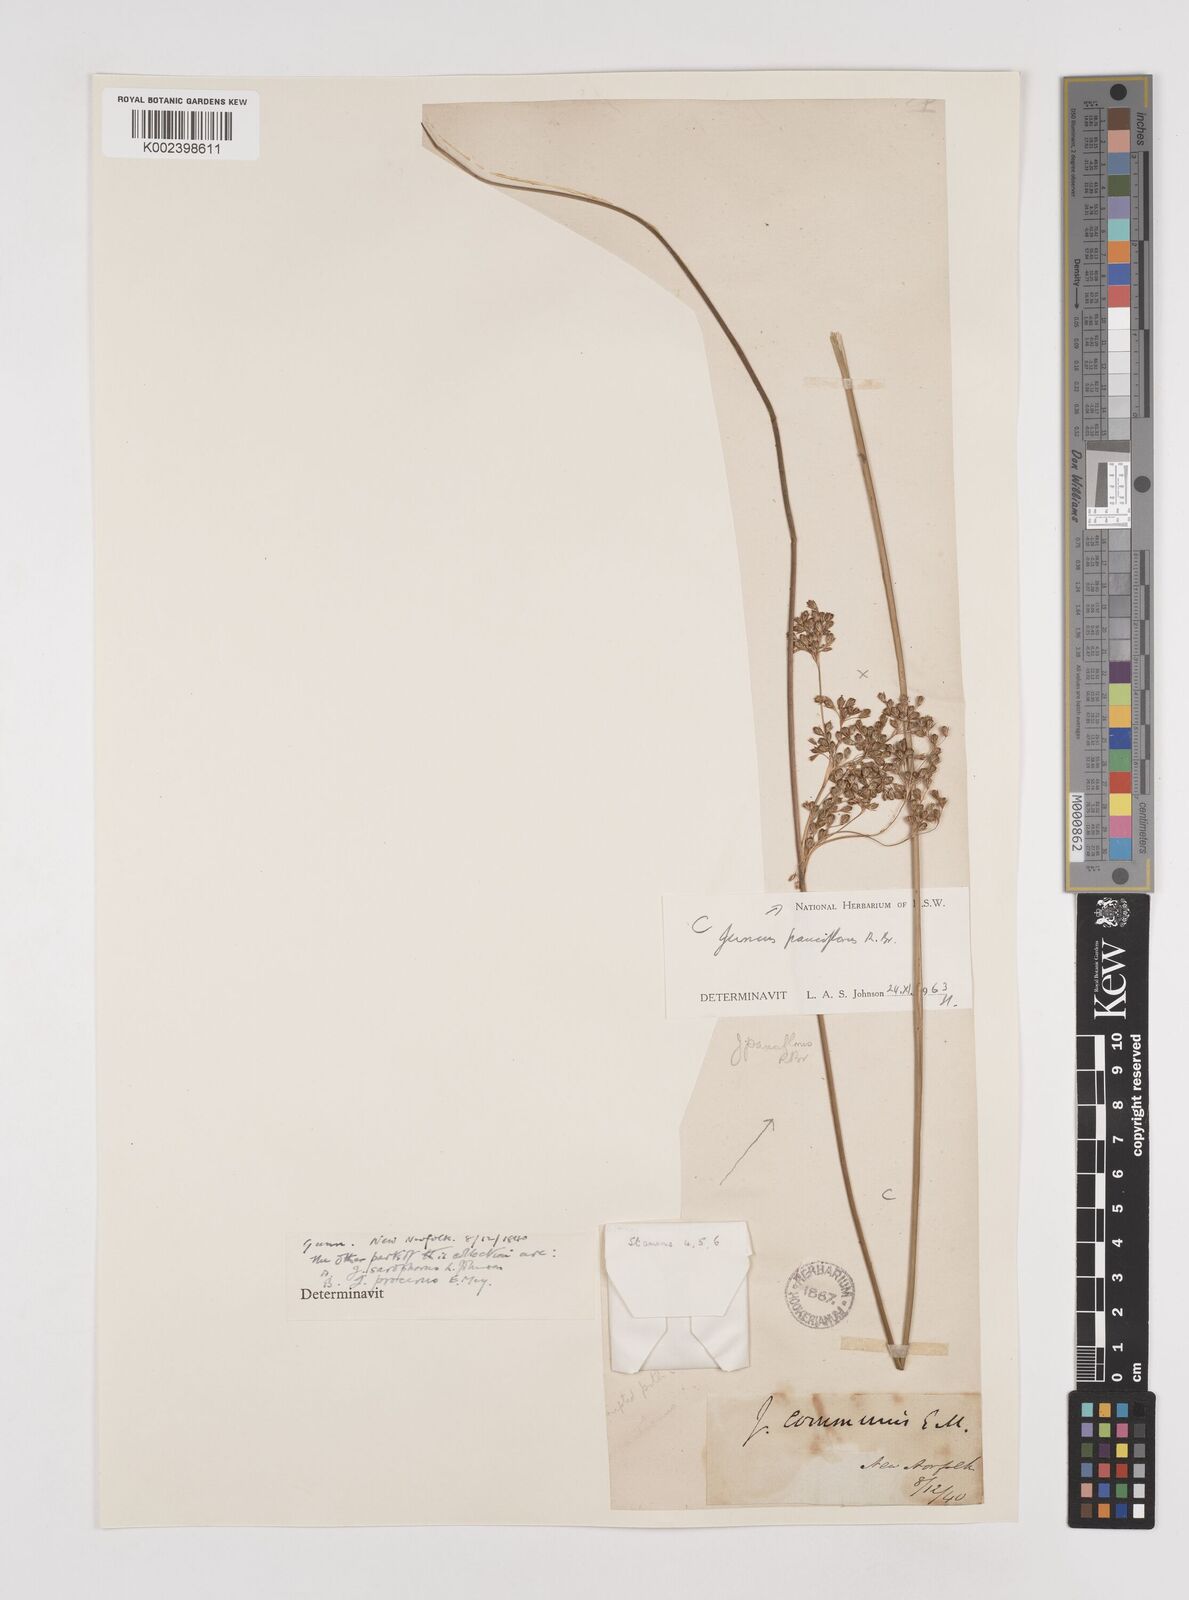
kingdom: Plantae
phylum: Tracheophyta
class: Liliopsida
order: Poales
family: Juncaceae
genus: Juncus
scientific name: Juncus pauciflorus
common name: Loose-flowered rush
